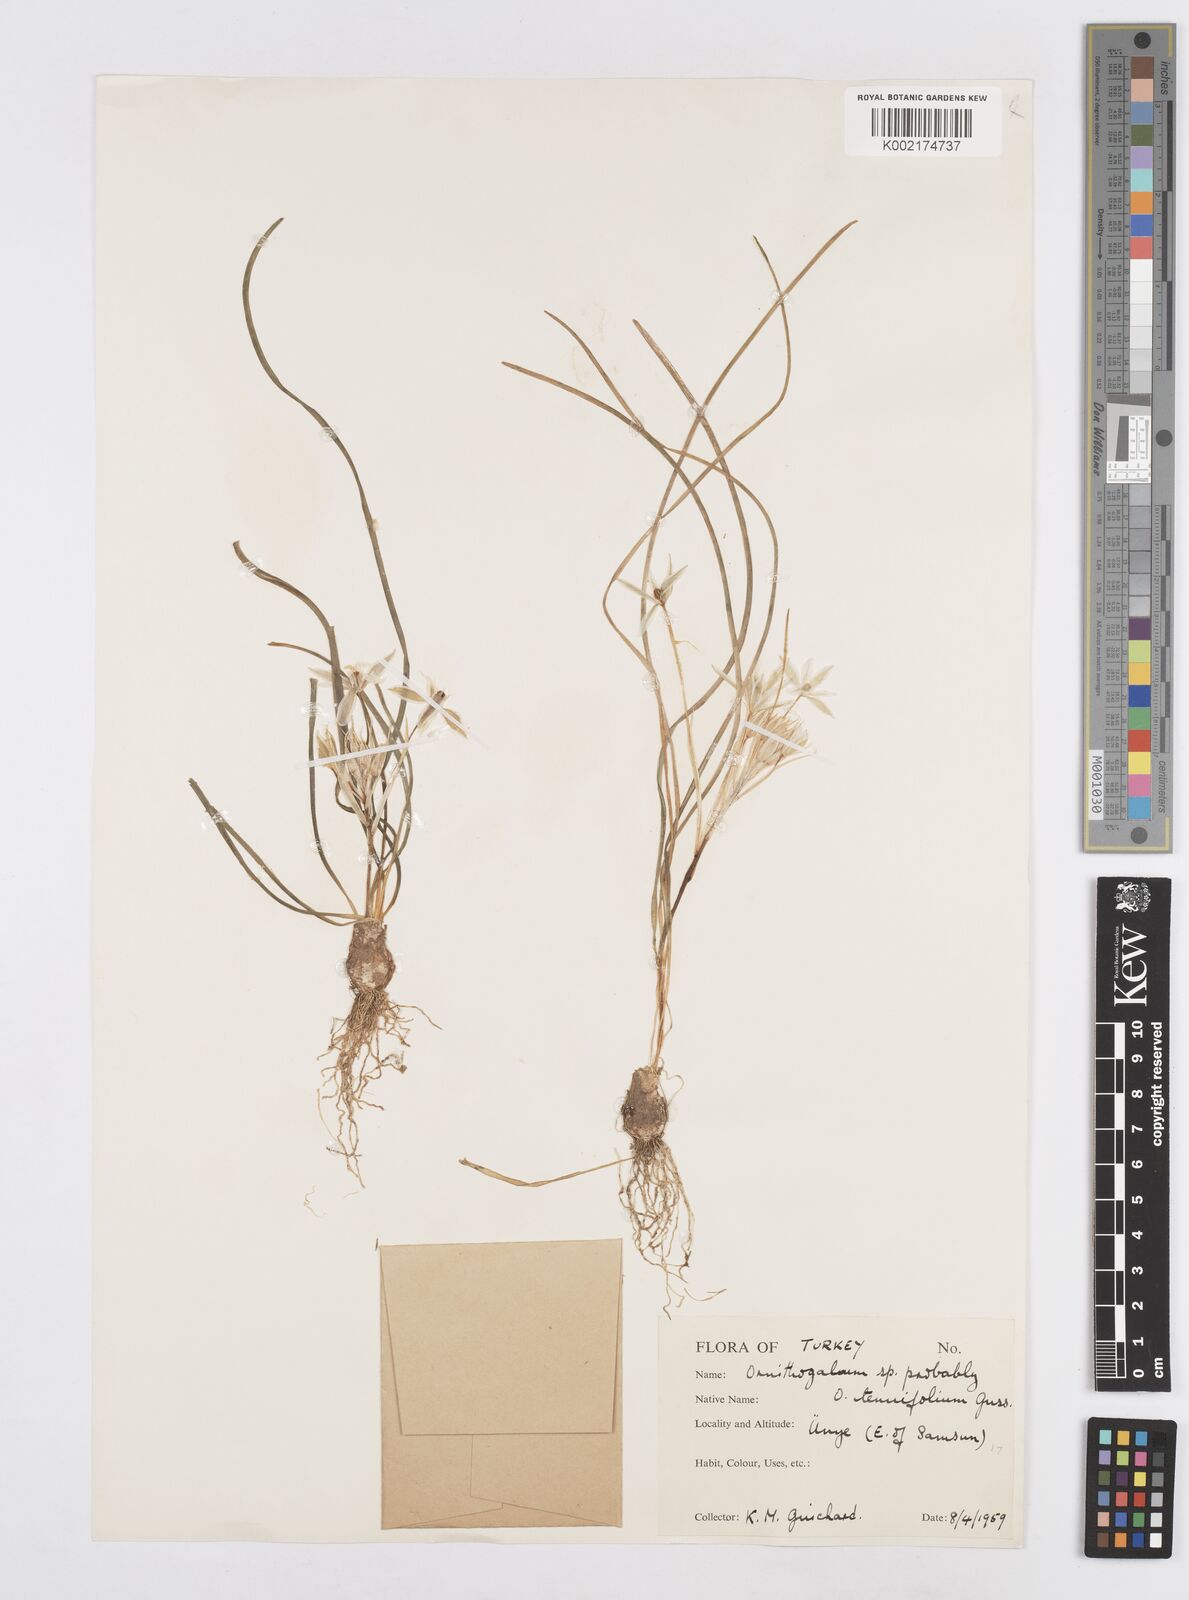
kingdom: Plantae
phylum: Tracheophyta
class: Liliopsida
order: Asparagales
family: Asparagaceae
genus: Ornithogalum
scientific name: Ornithogalum gussonei
